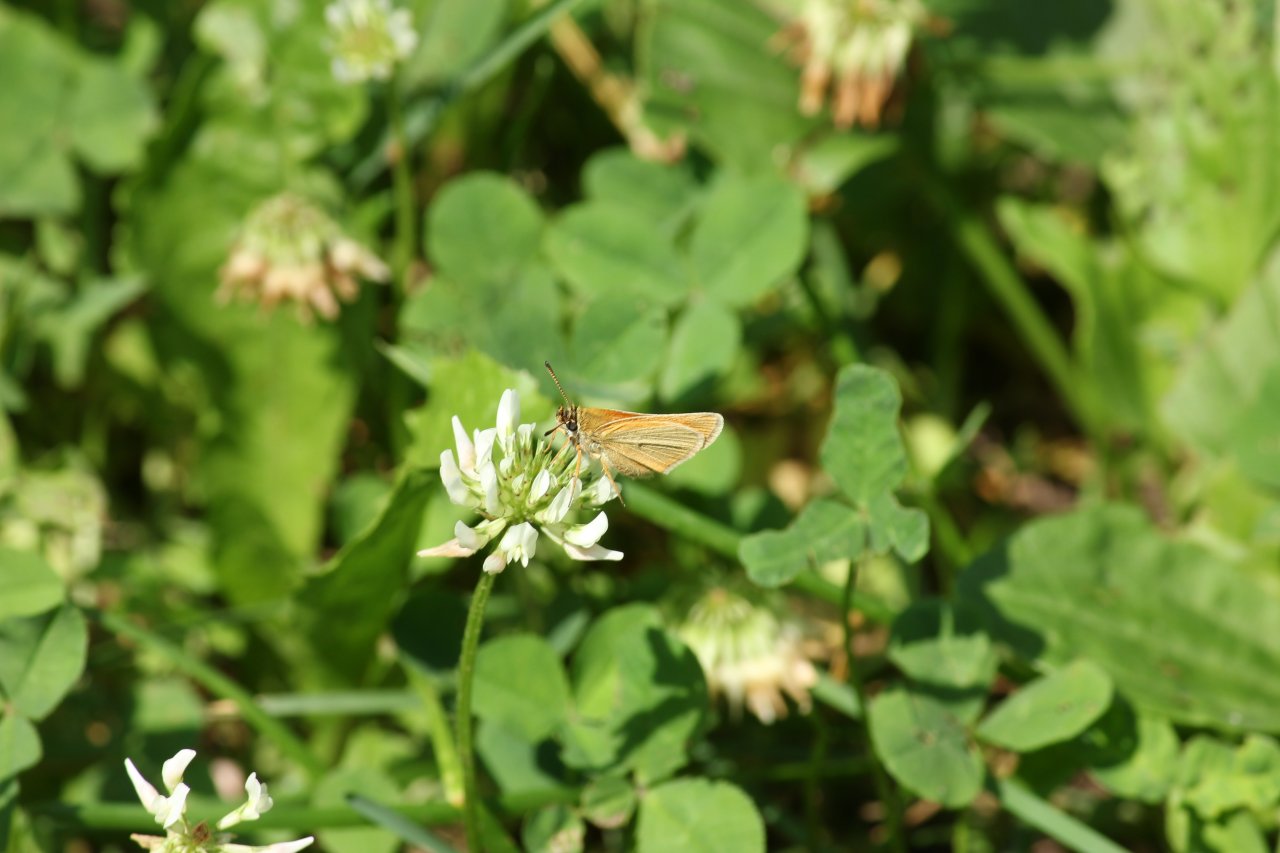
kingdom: Animalia
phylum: Arthropoda
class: Insecta
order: Lepidoptera
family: Hesperiidae
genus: Thymelicus
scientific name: Thymelicus lineola
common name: European Skipper
